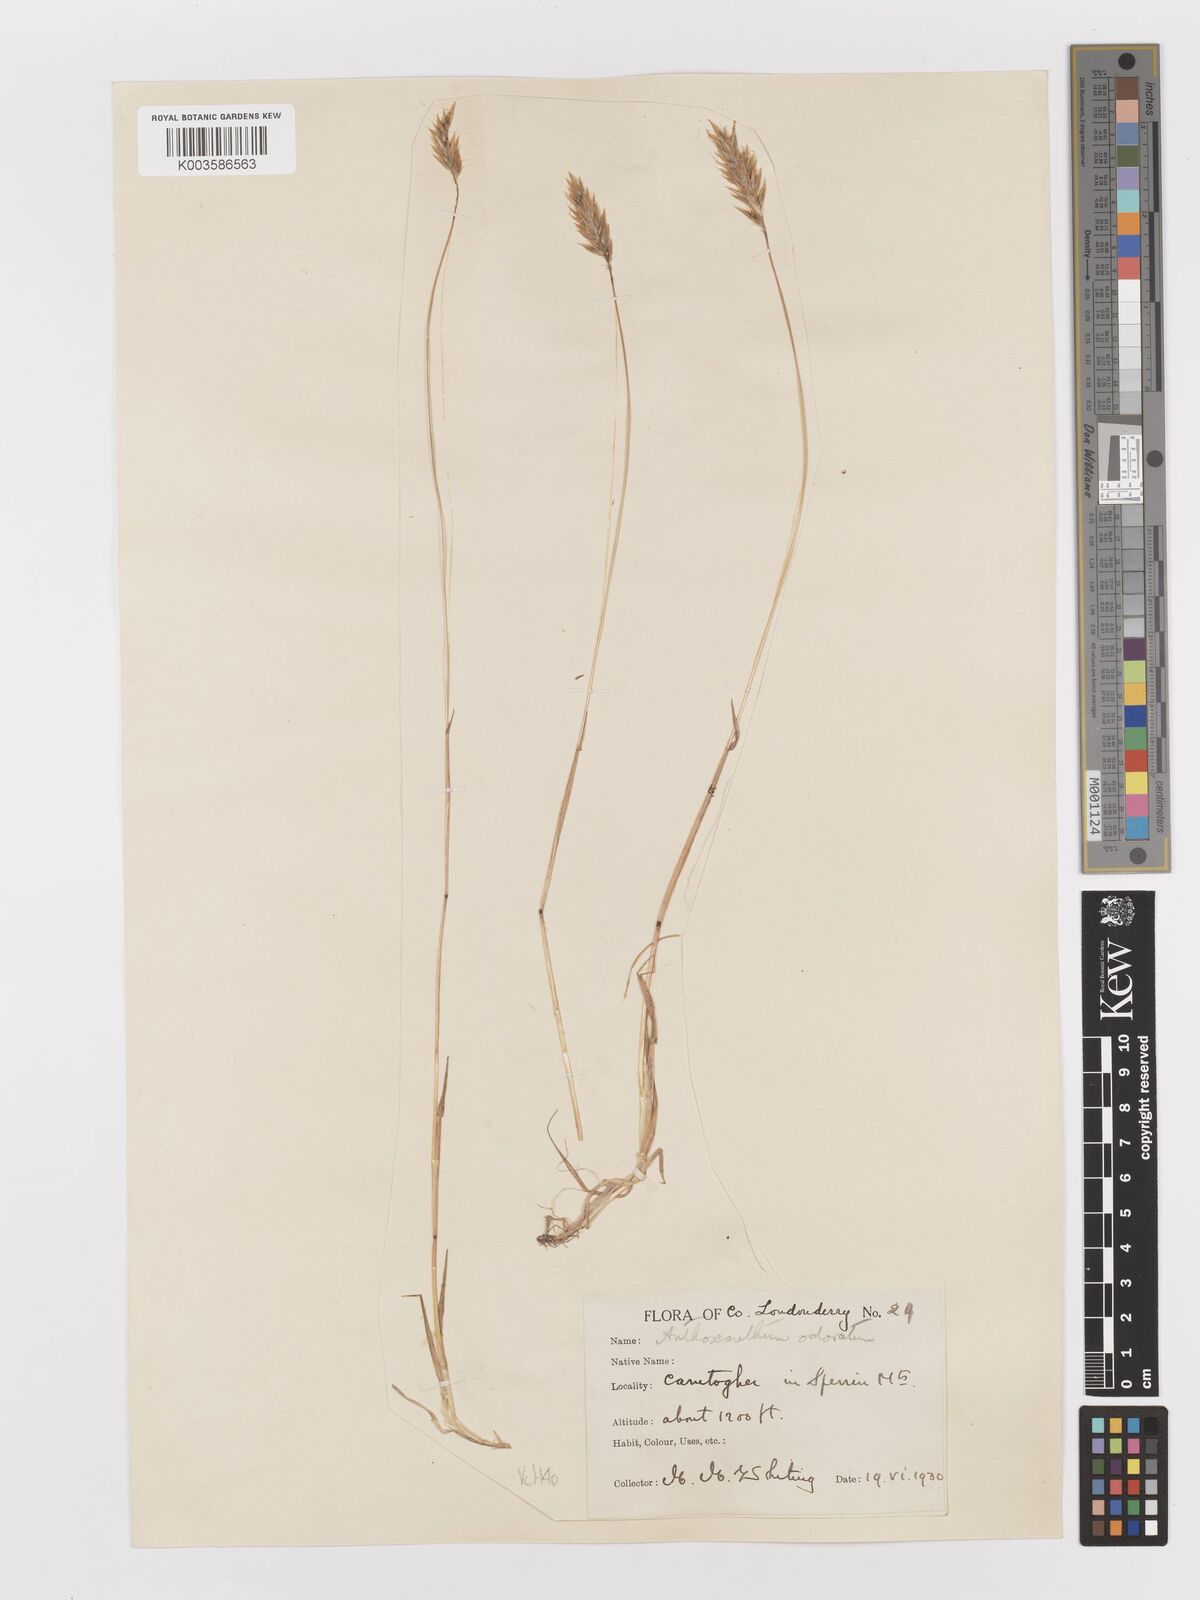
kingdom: Plantae
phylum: Tracheophyta
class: Liliopsida
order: Poales
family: Poaceae
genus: Anthoxanthum
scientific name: Anthoxanthum odoratum
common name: Sweet vernalgrass
